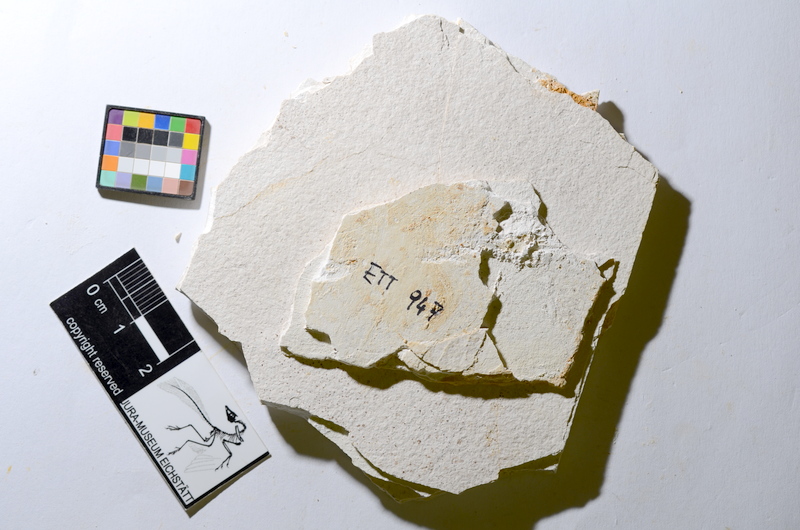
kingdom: Animalia
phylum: Chordata
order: Salmoniformes
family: Orthogonikleithridae
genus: Orthogonikleithrus
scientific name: Orthogonikleithrus hoelli
